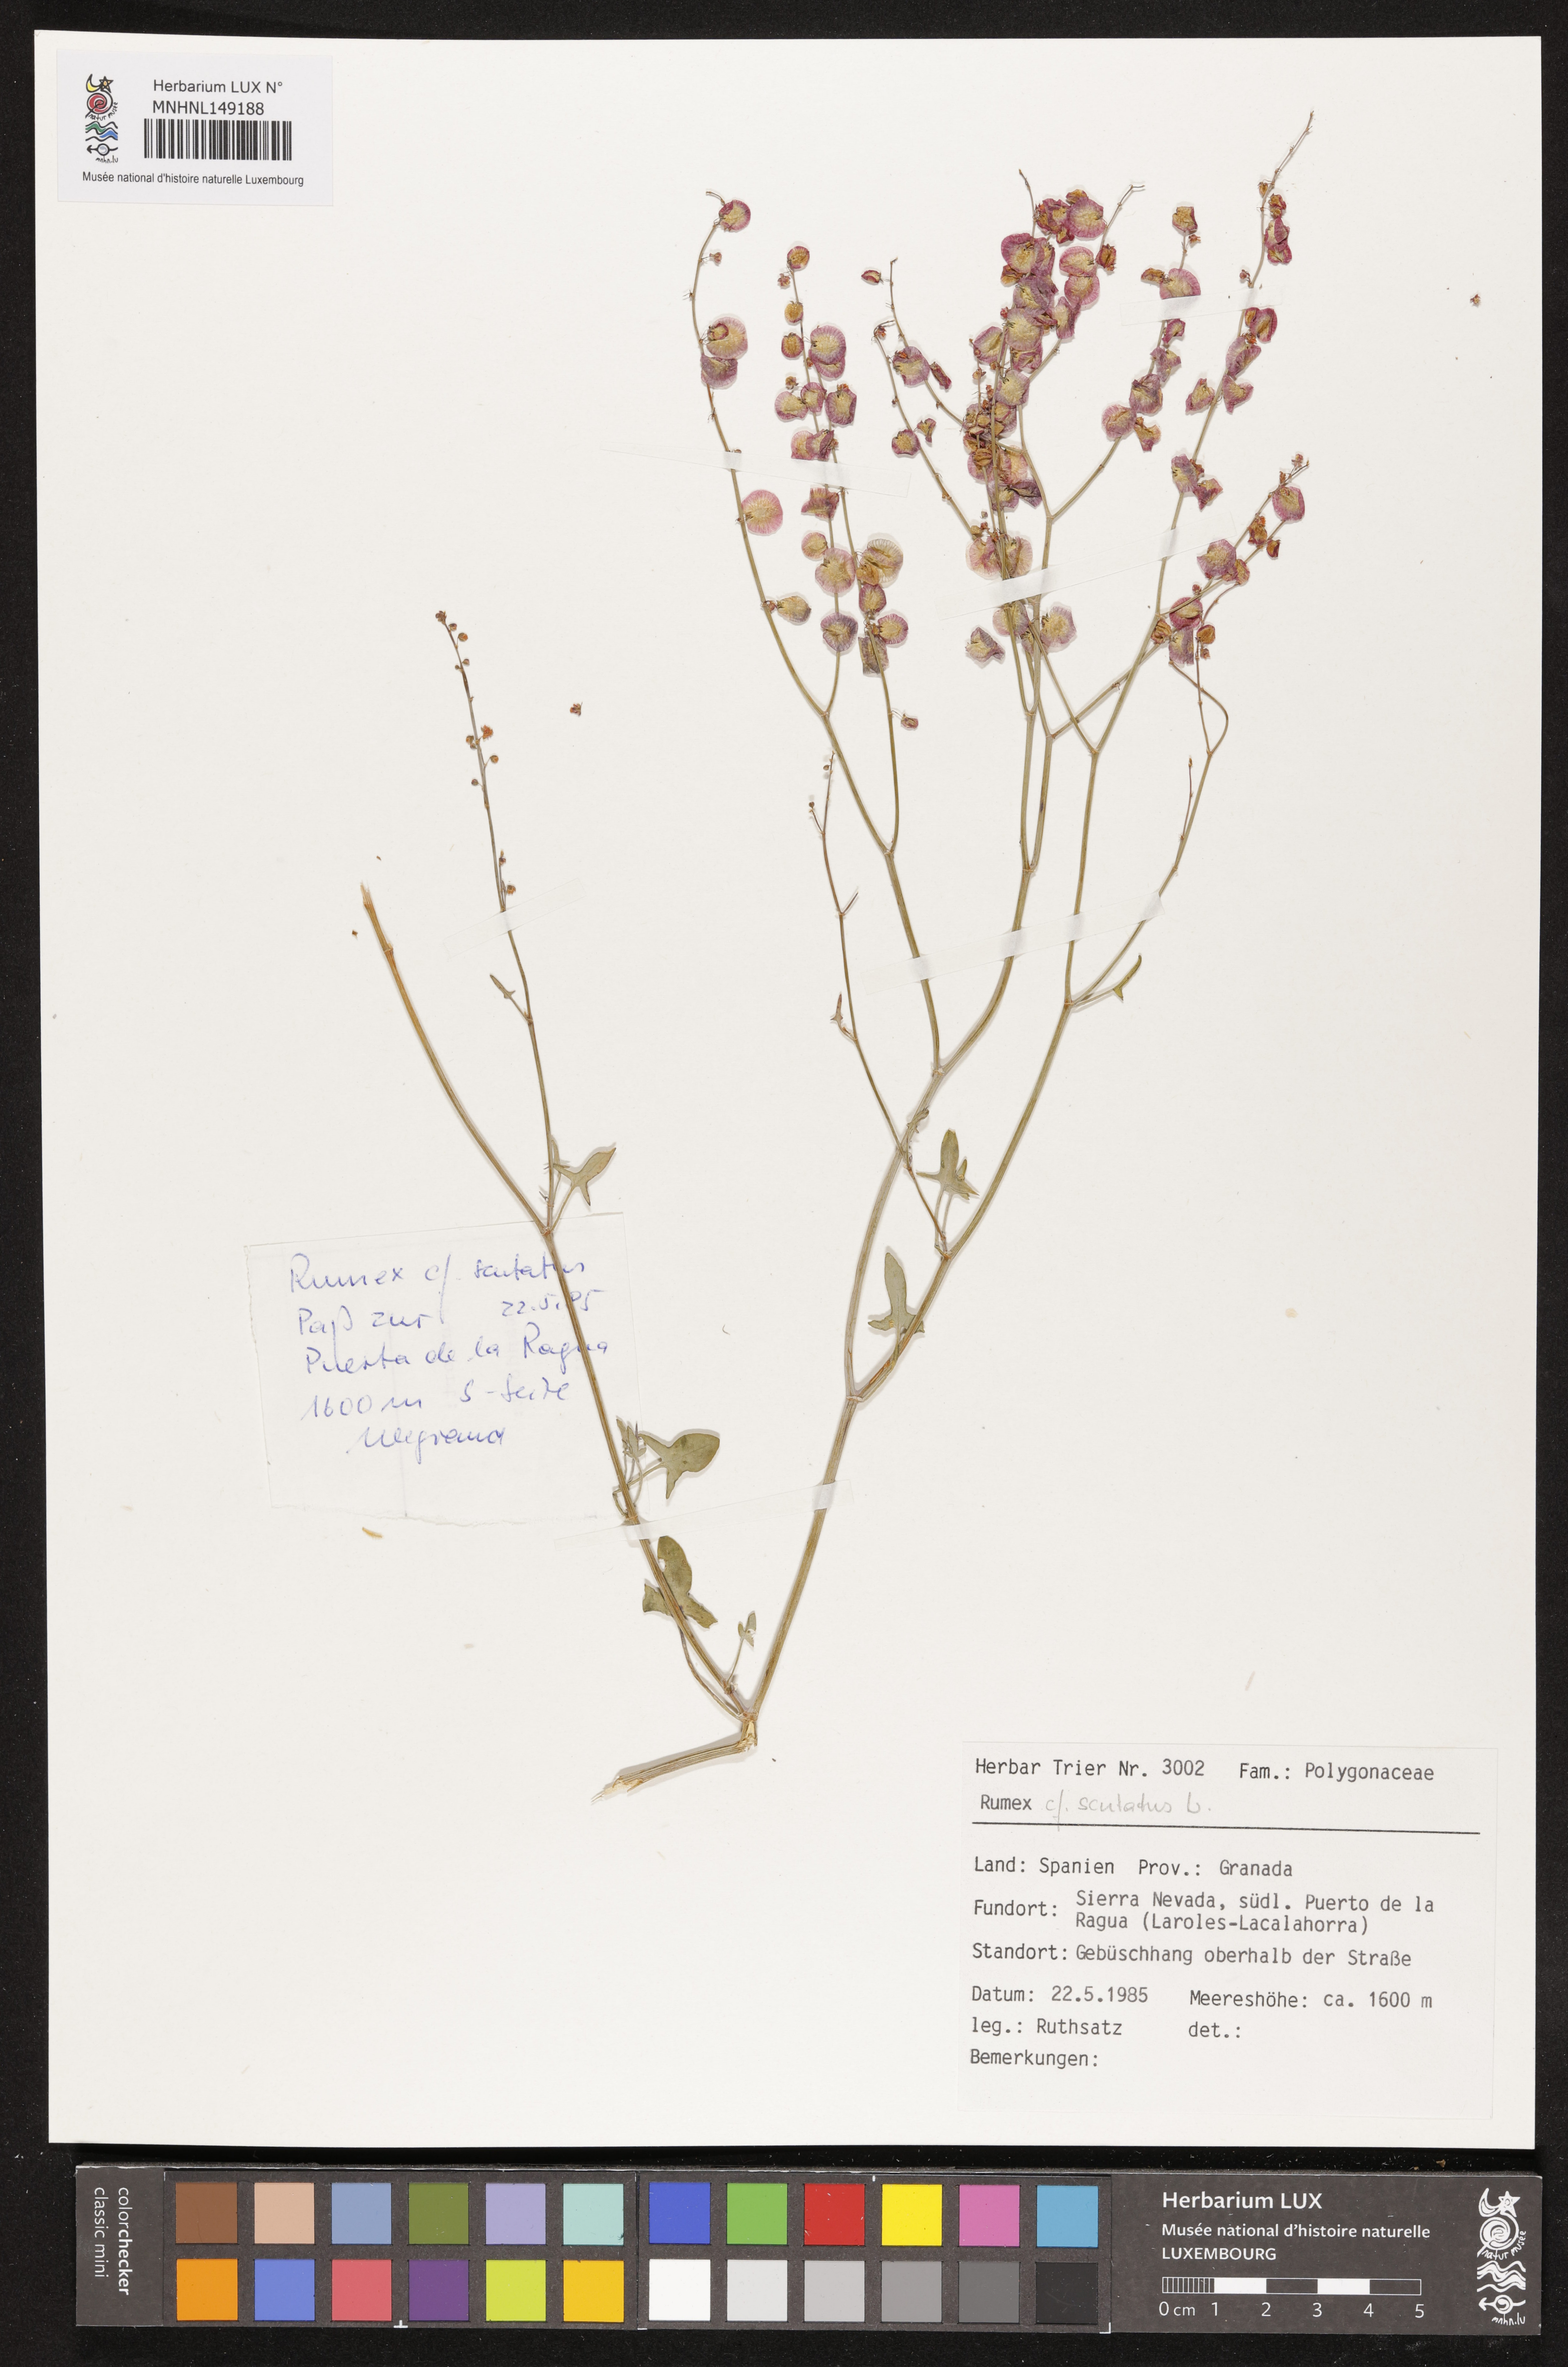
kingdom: Plantae
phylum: Tracheophyta
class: Magnoliopsida
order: Caryophyllales
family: Polygonaceae
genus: Rumex
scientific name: Rumex scutatus
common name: French sorrel
